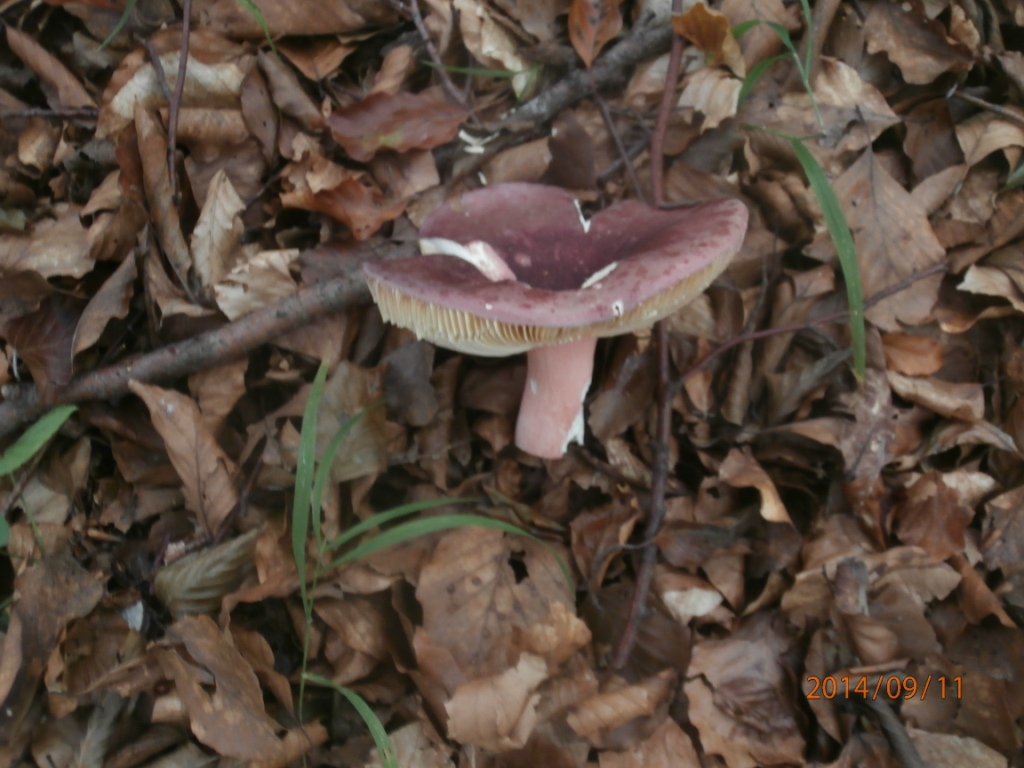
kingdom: Fungi
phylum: Basidiomycota
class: Agaricomycetes
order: Russulales
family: Russulaceae
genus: Russula
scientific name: Russula olivacea
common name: stor skørhat
